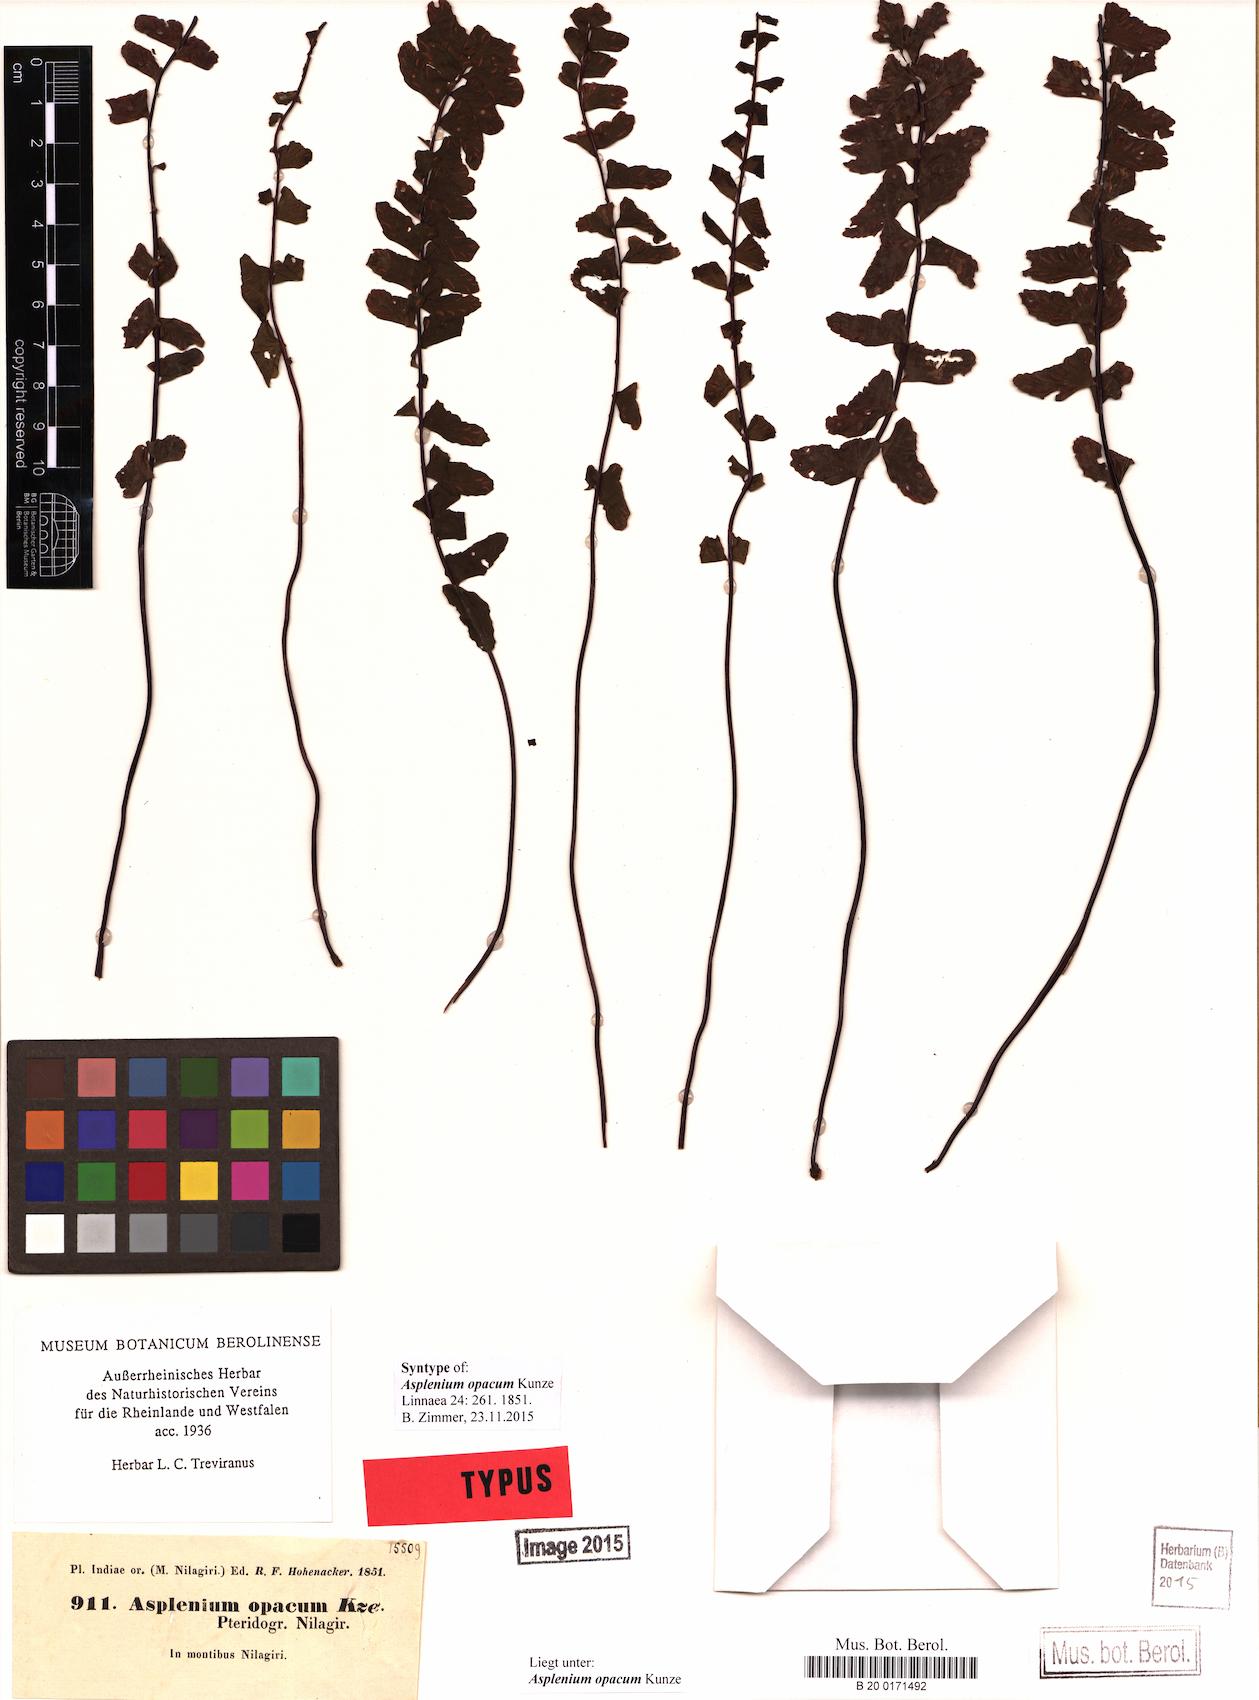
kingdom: Plantae
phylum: Tracheophyta
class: Polypodiopsida
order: Polypodiales
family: Aspleniaceae
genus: Asplenium
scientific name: Asplenium normale
